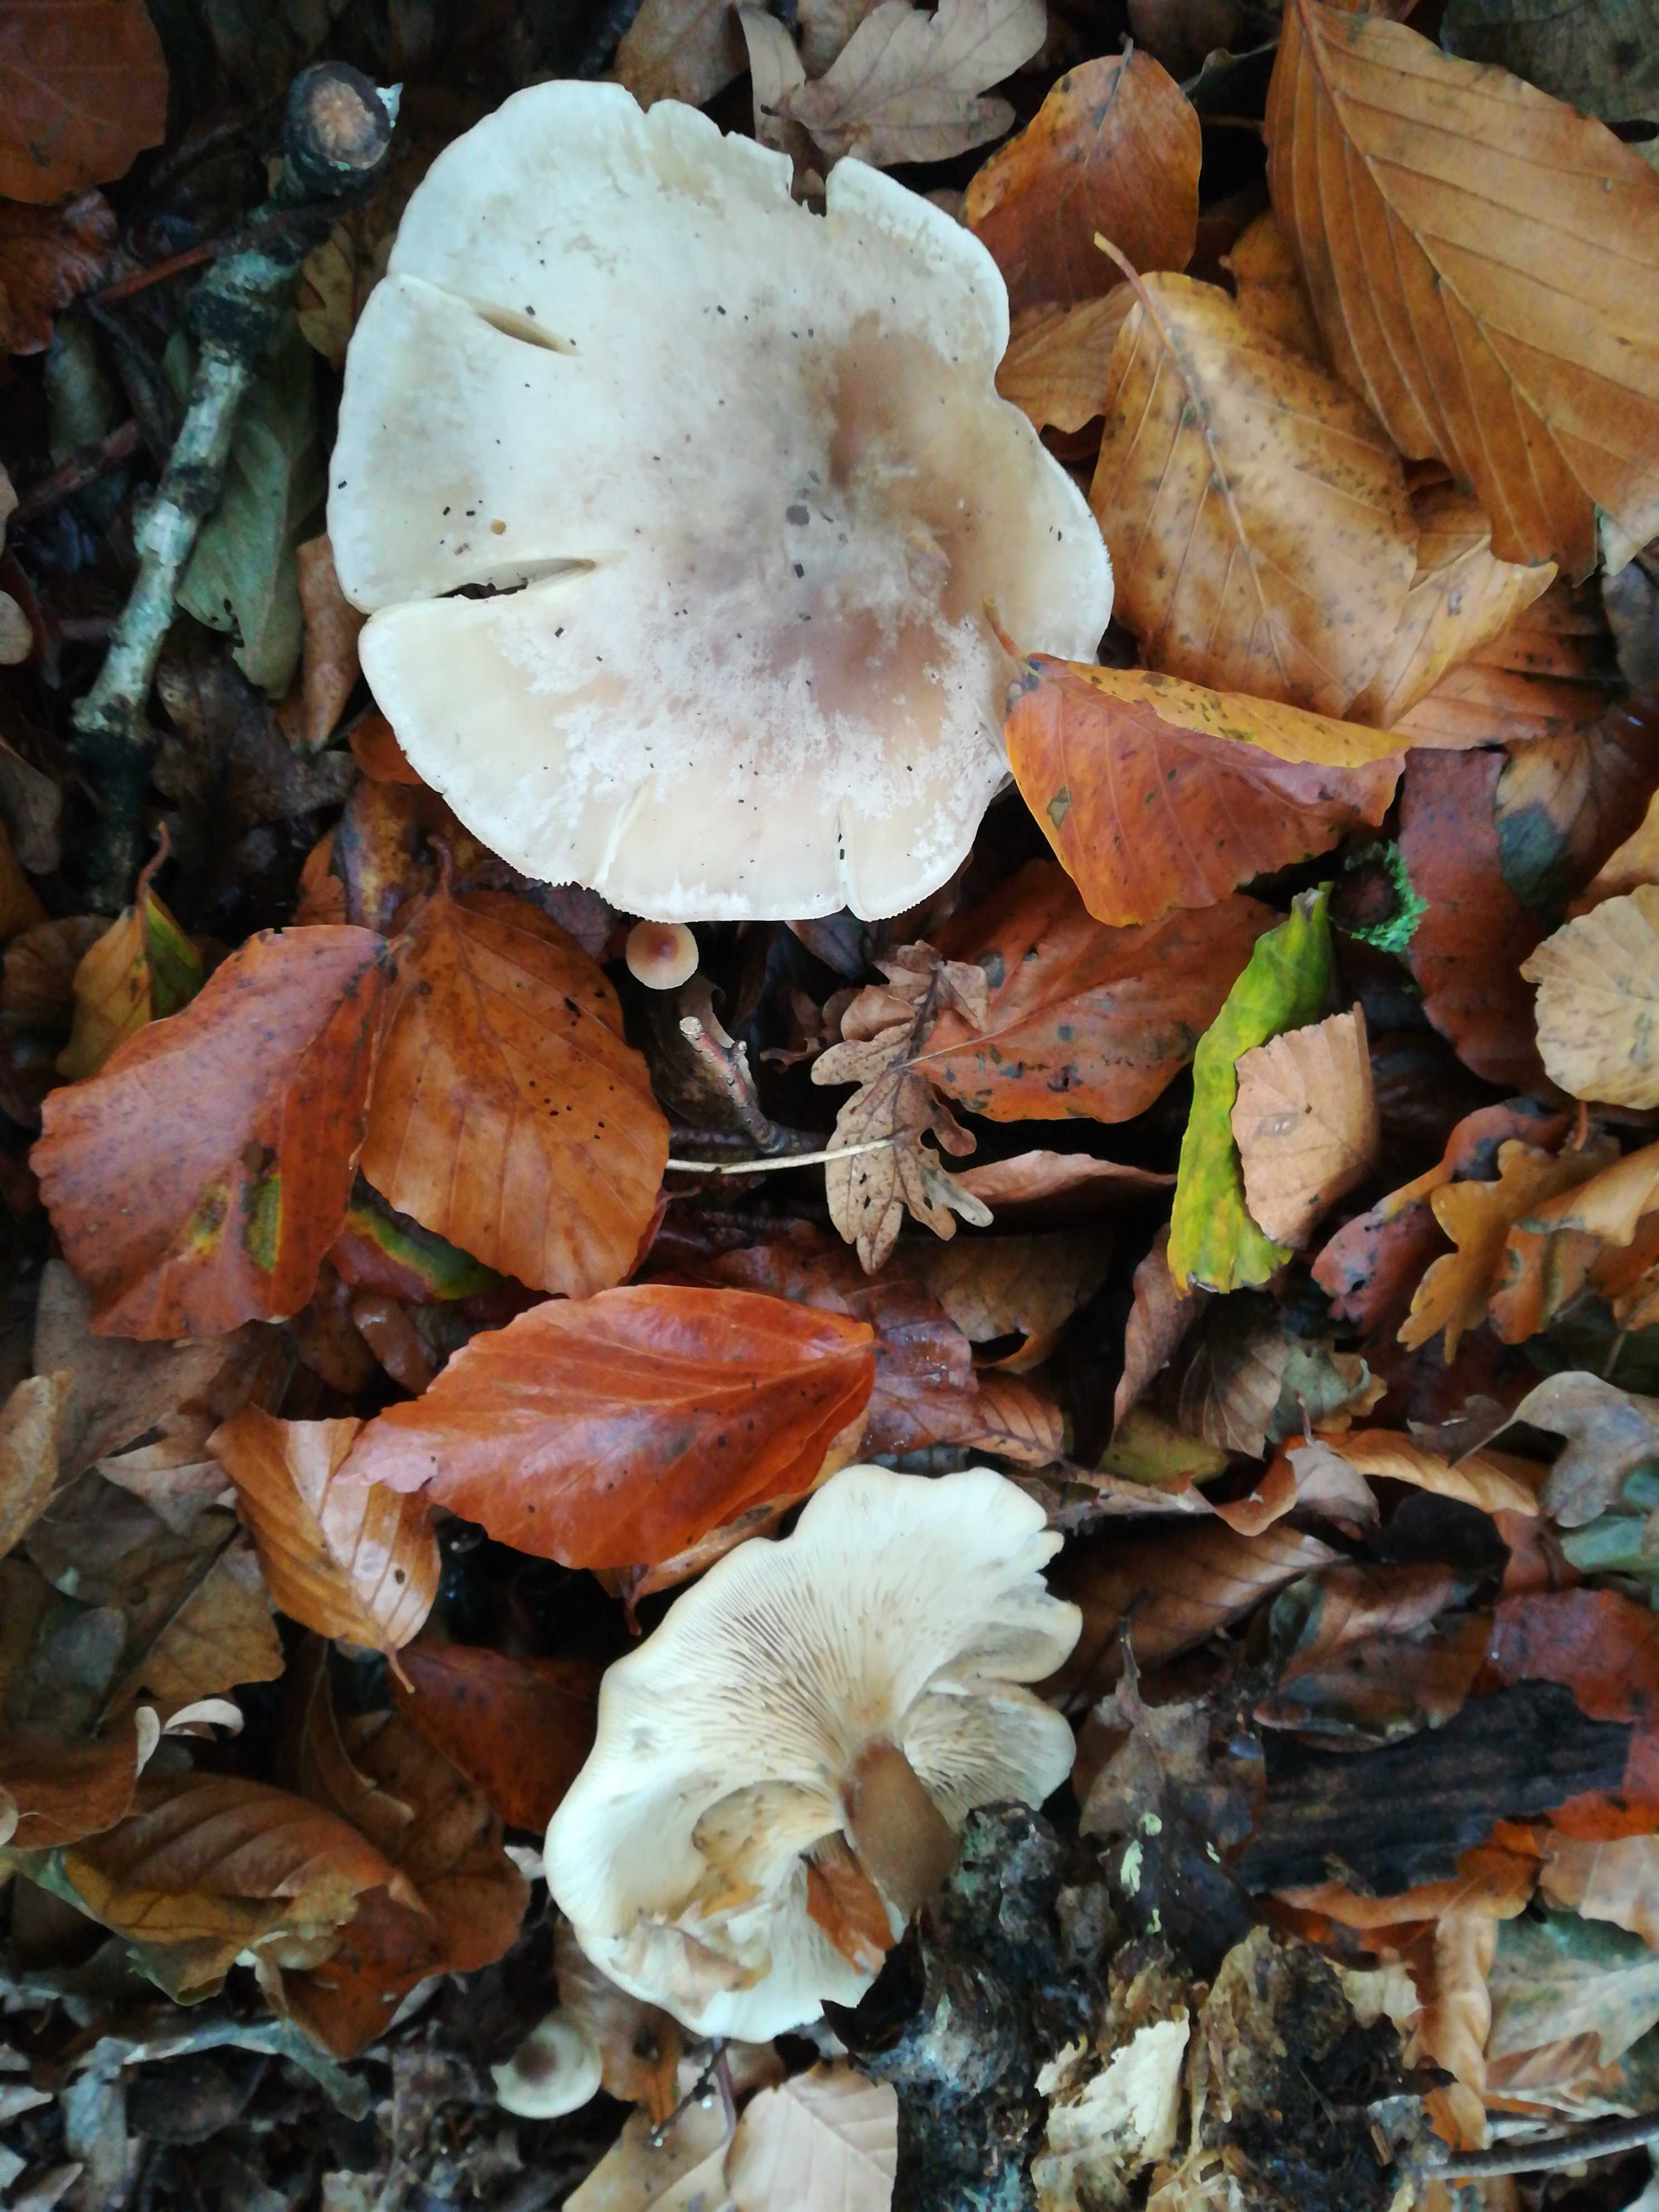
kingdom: Fungi
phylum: Basidiomycota
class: Agaricomycetes
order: Agaricales
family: Tricholomataceae
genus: Clitocybe
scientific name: Clitocybe
